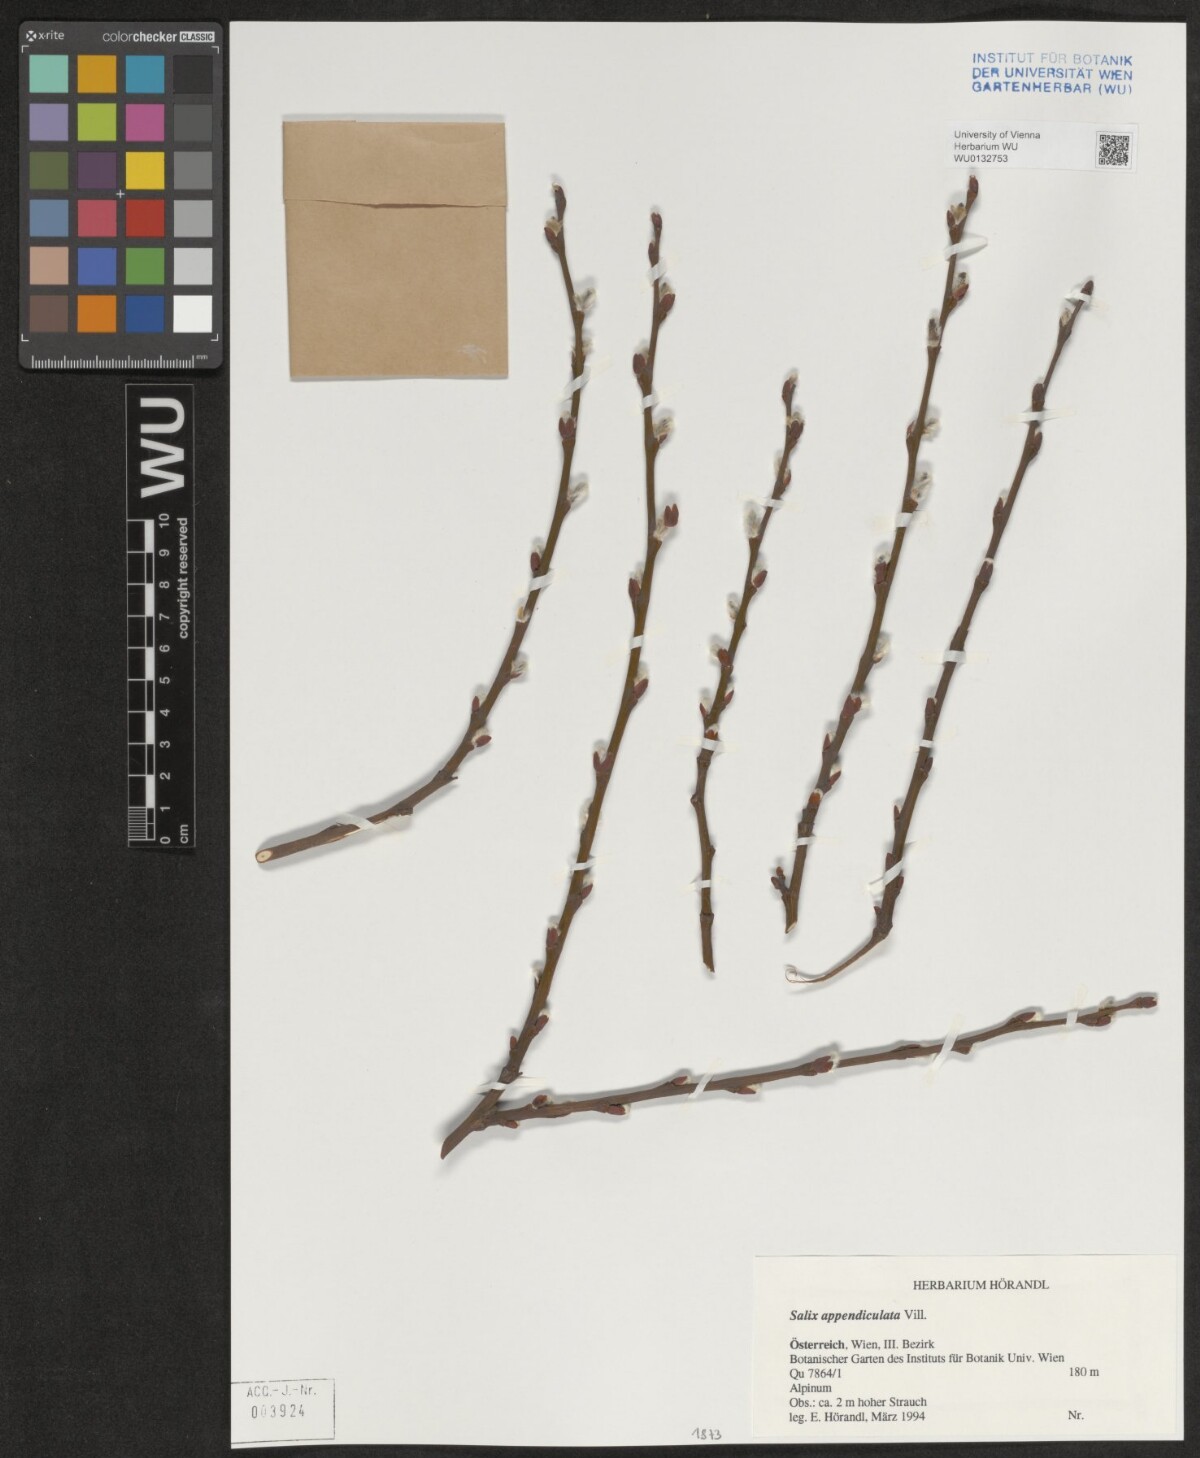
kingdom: Plantae
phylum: Tracheophyta
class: Magnoliopsida
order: Malpighiales
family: Salicaceae
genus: Salix
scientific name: Salix appendiculata
